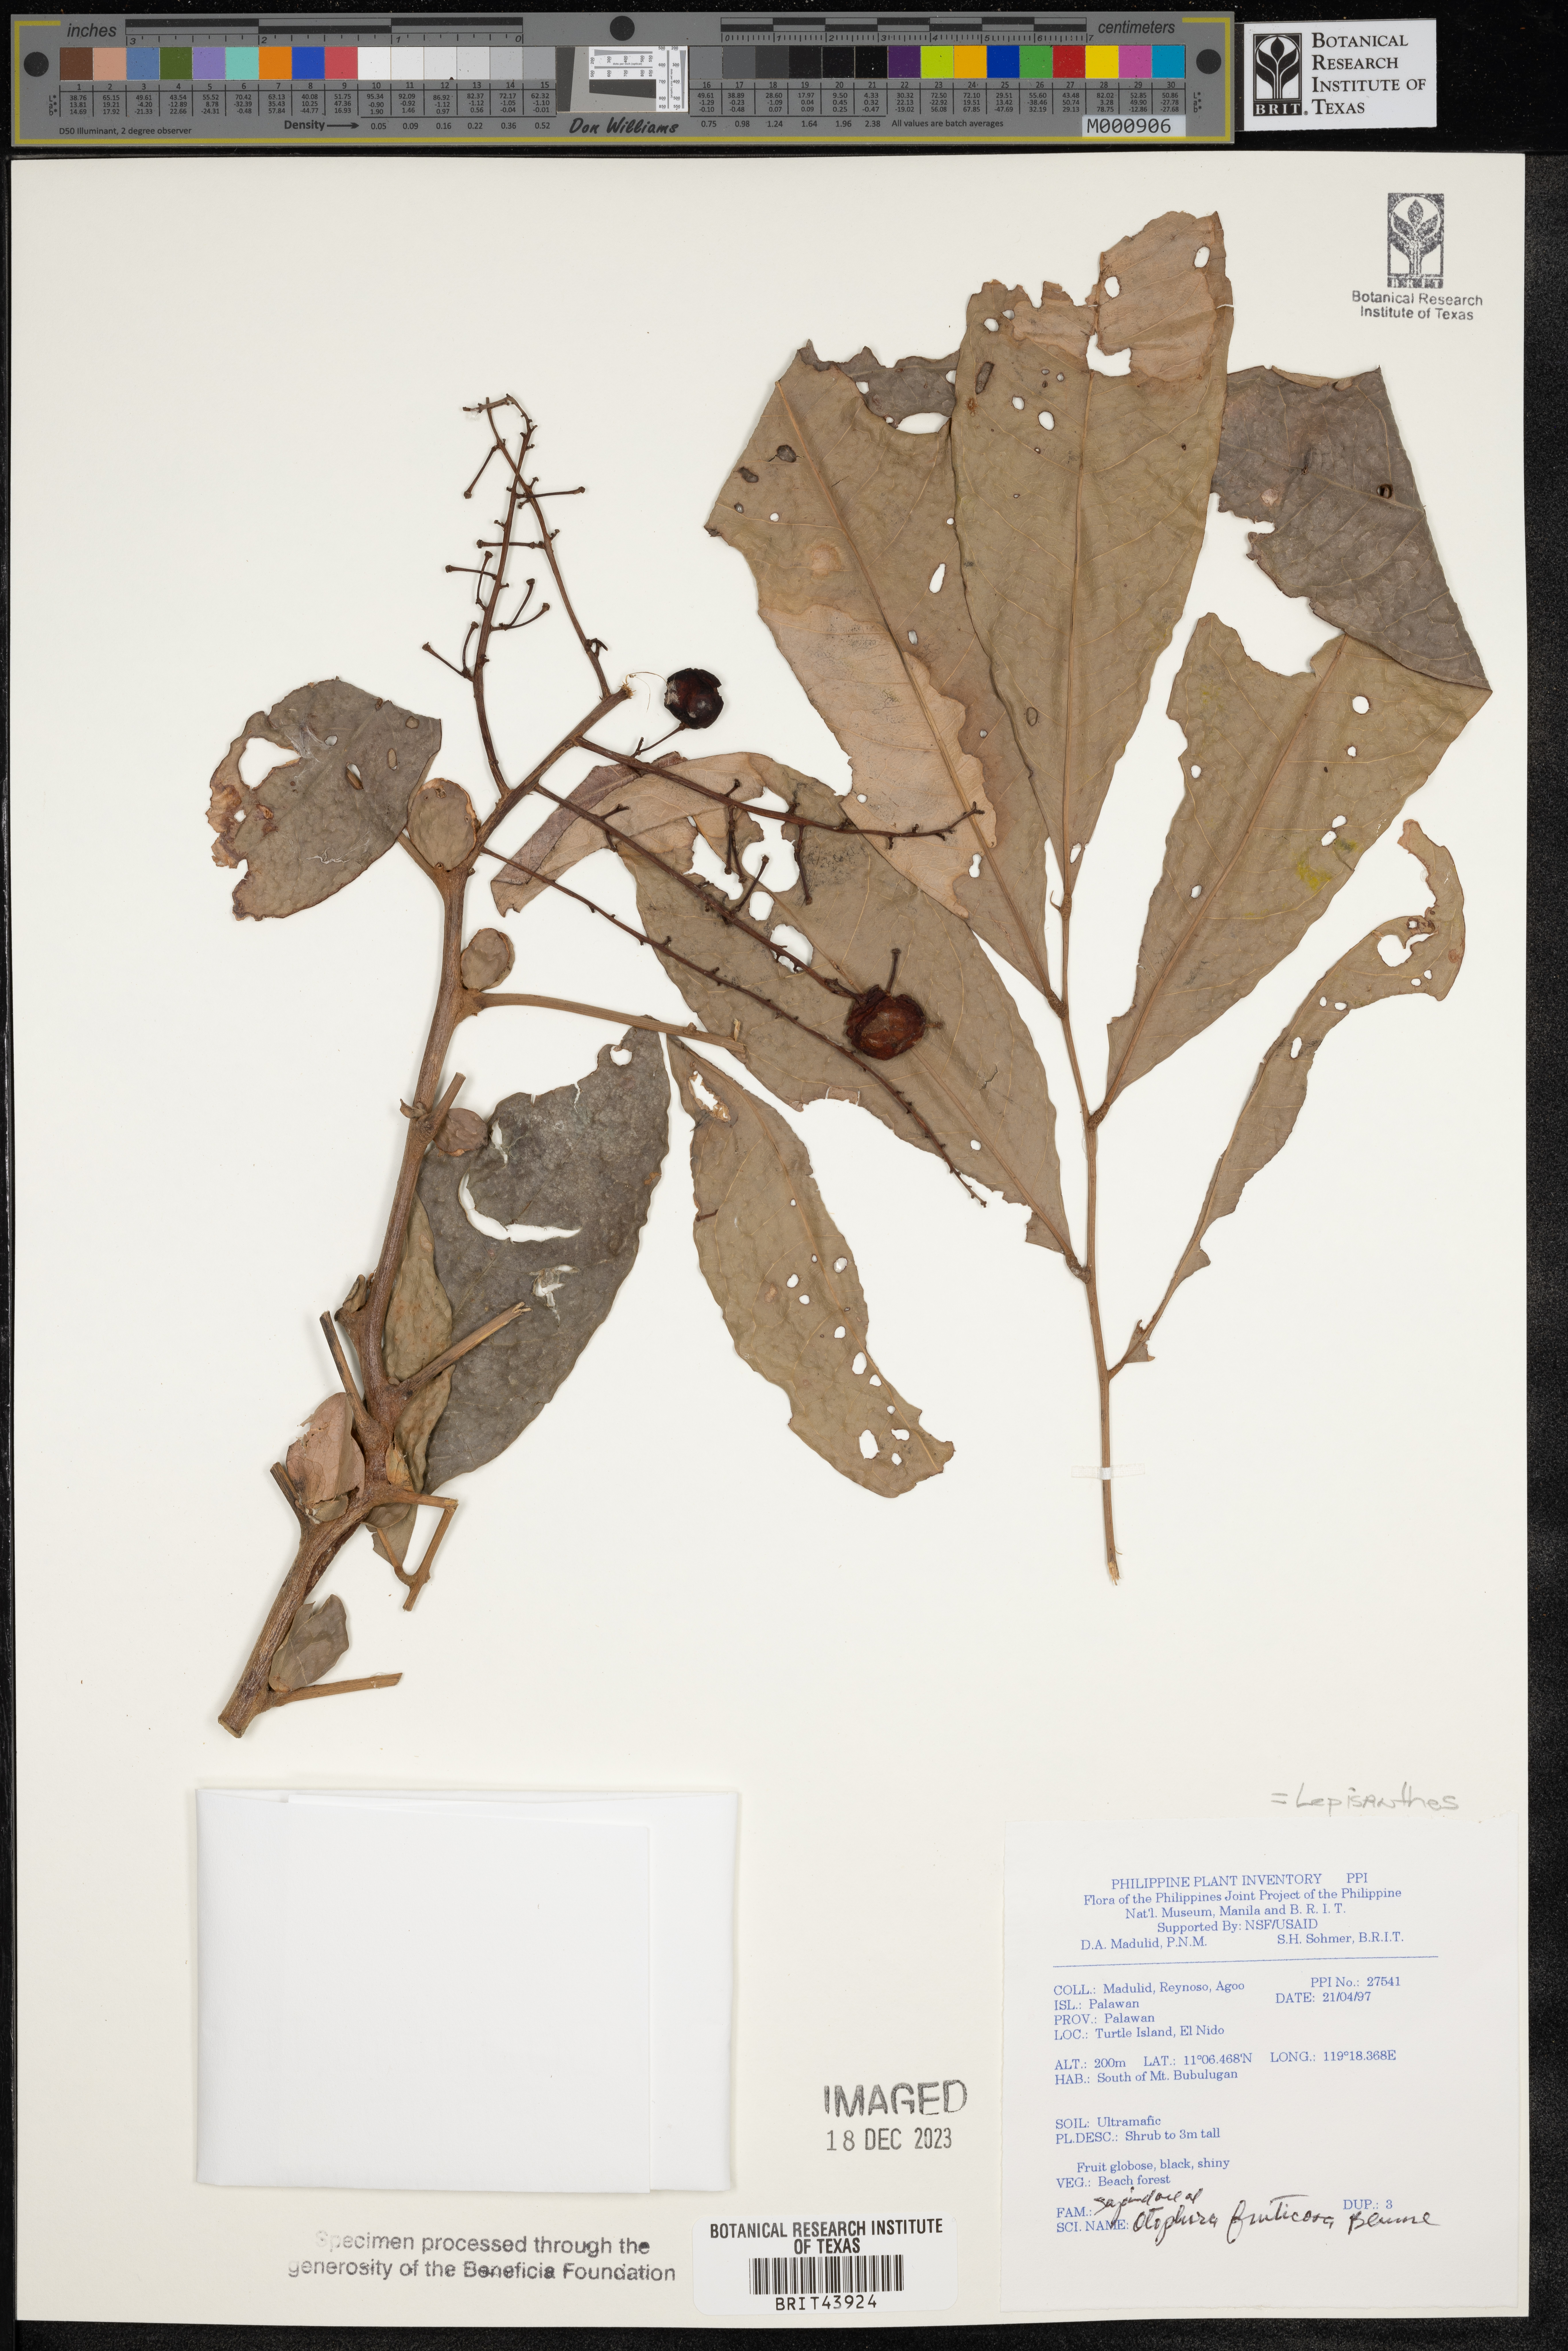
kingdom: Plantae
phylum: Tracheophyta
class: Magnoliopsida
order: Sapindales
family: Sapindaceae
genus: Lepisanthes
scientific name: Lepisanthes fruticosa
